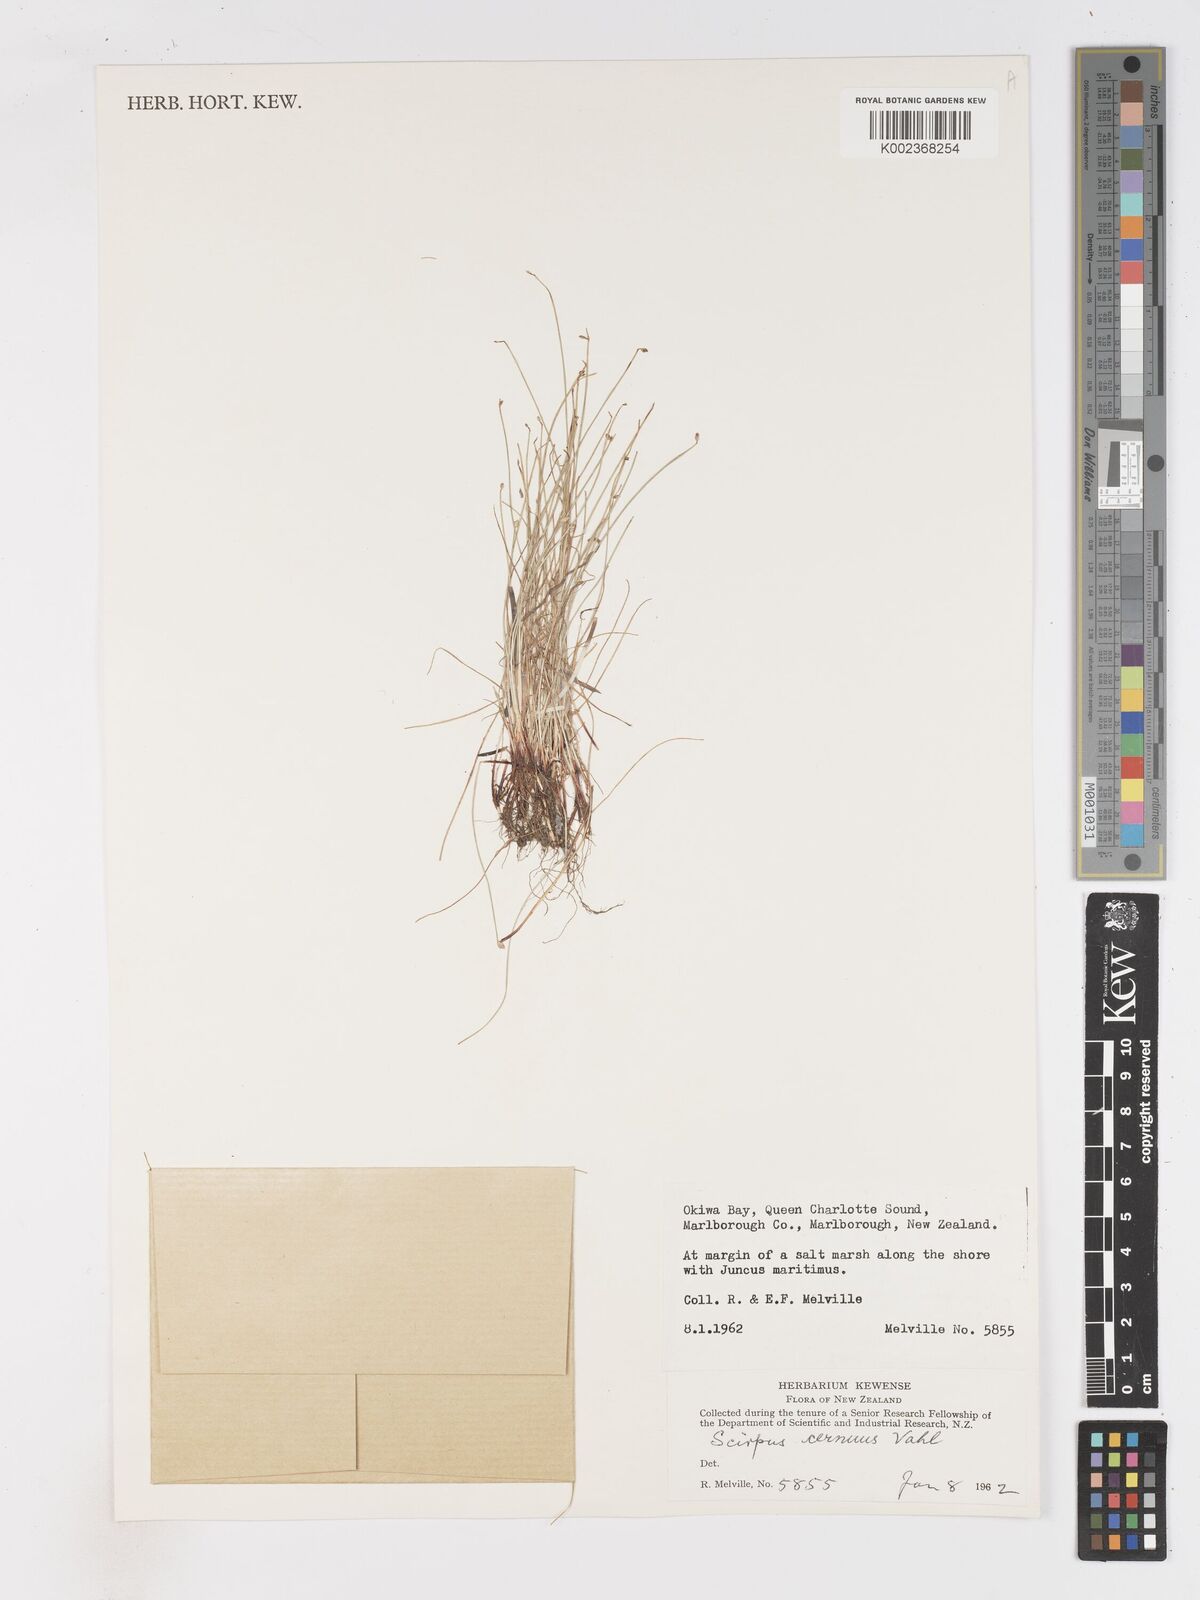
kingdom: Plantae
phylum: Tracheophyta
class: Liliopsida
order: Poales
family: Cyperaceae
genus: Isolepis
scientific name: Isolepis cernua
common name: Slender club-rush
